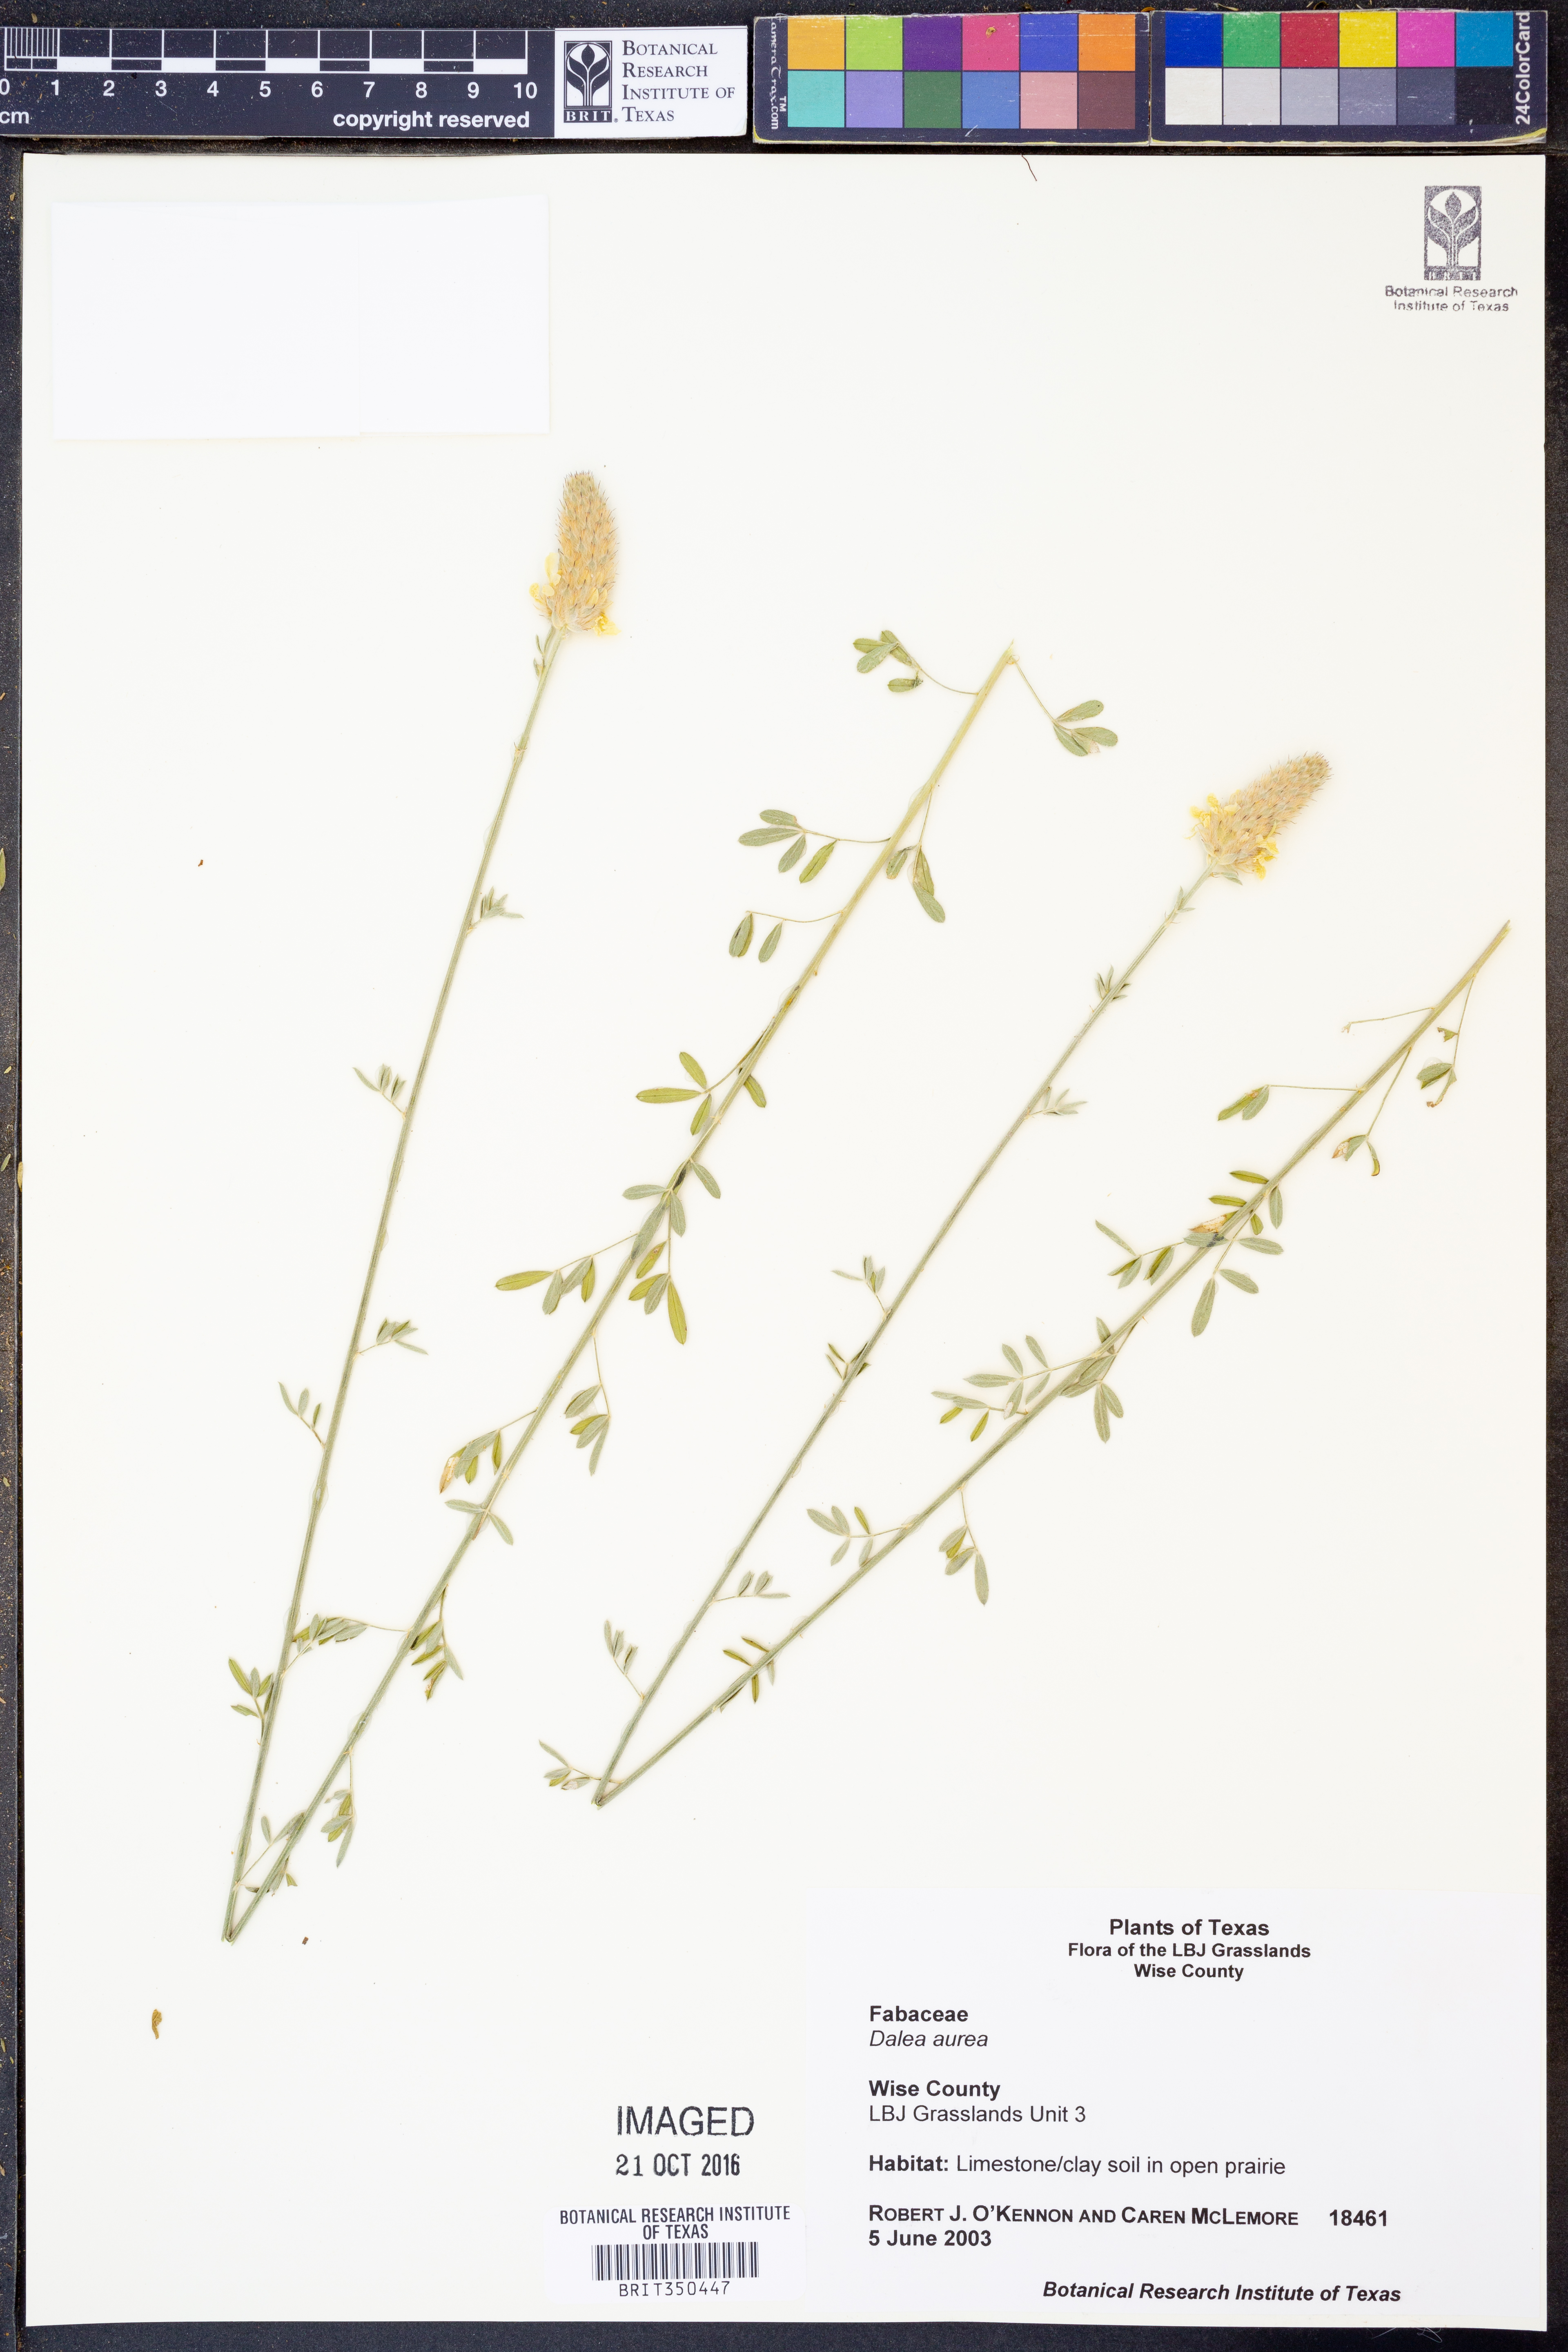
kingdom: Plantae
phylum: Tracheophyta
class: Magnoliopsida
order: Fabales
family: Fabaceae
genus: Dalea
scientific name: Dalea aurea
